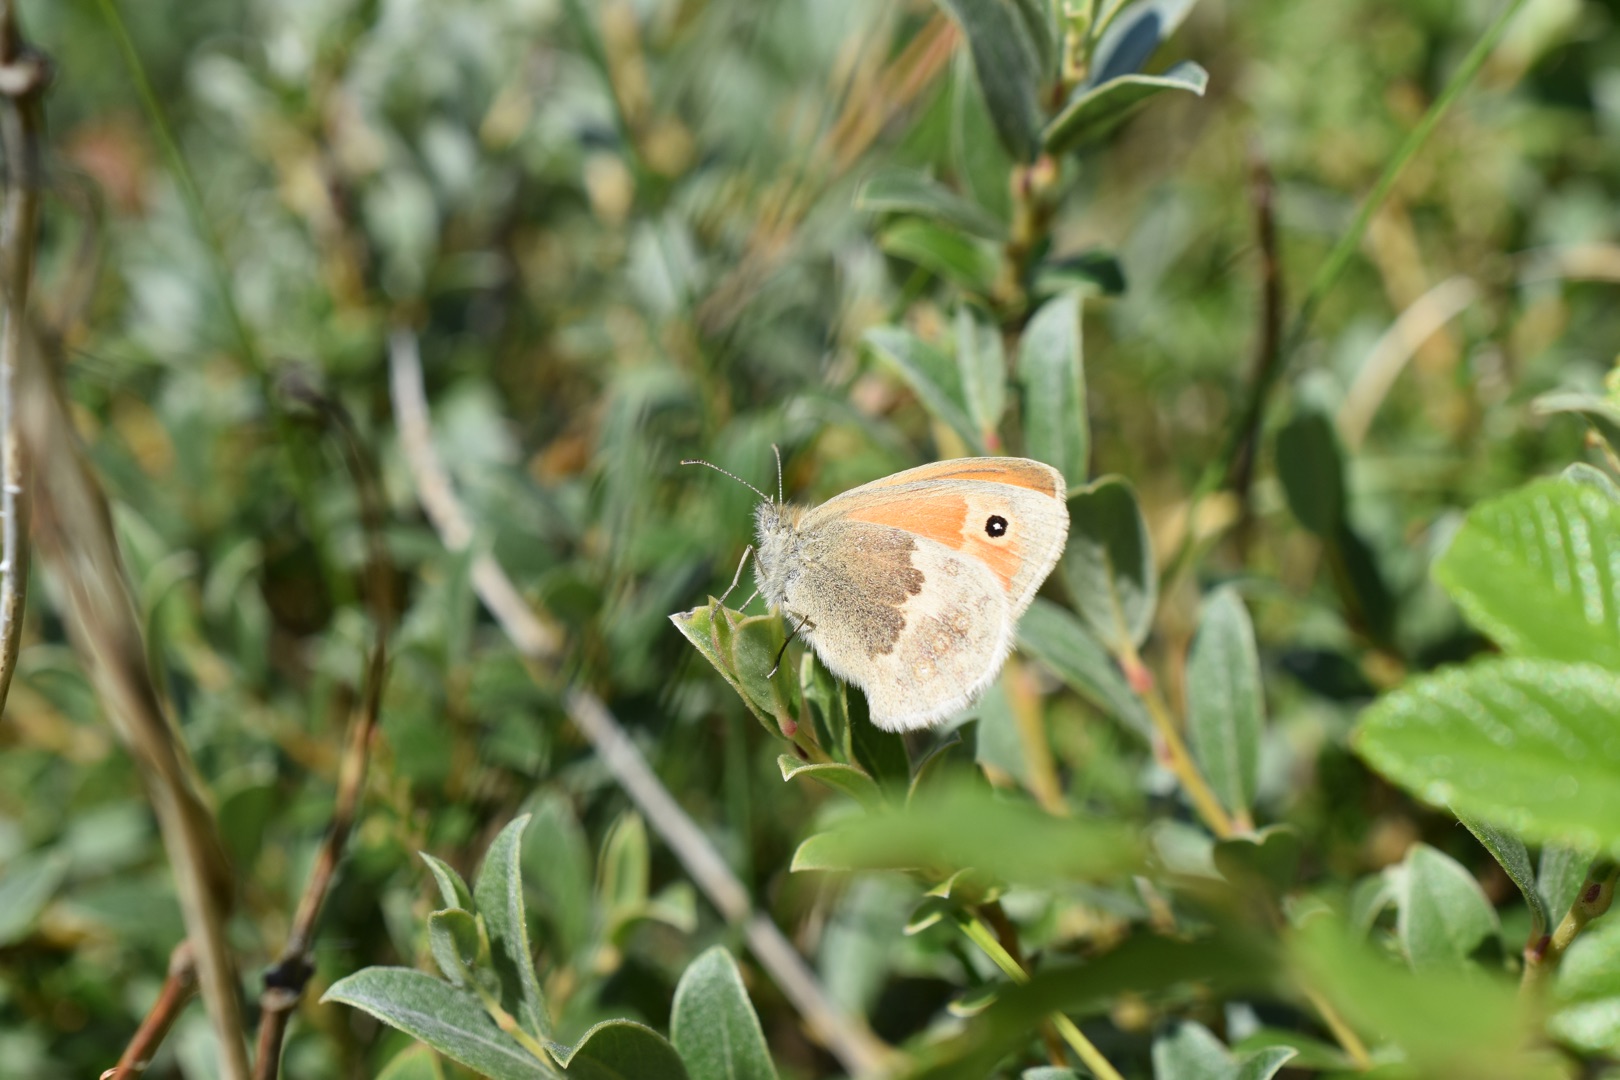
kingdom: Animalia
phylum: Arthropoda
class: Insecta
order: Lepidoptera
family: Nymphalidae
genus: Coenonympha
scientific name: Coenonympha pamphilus
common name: Okkergul randøje
